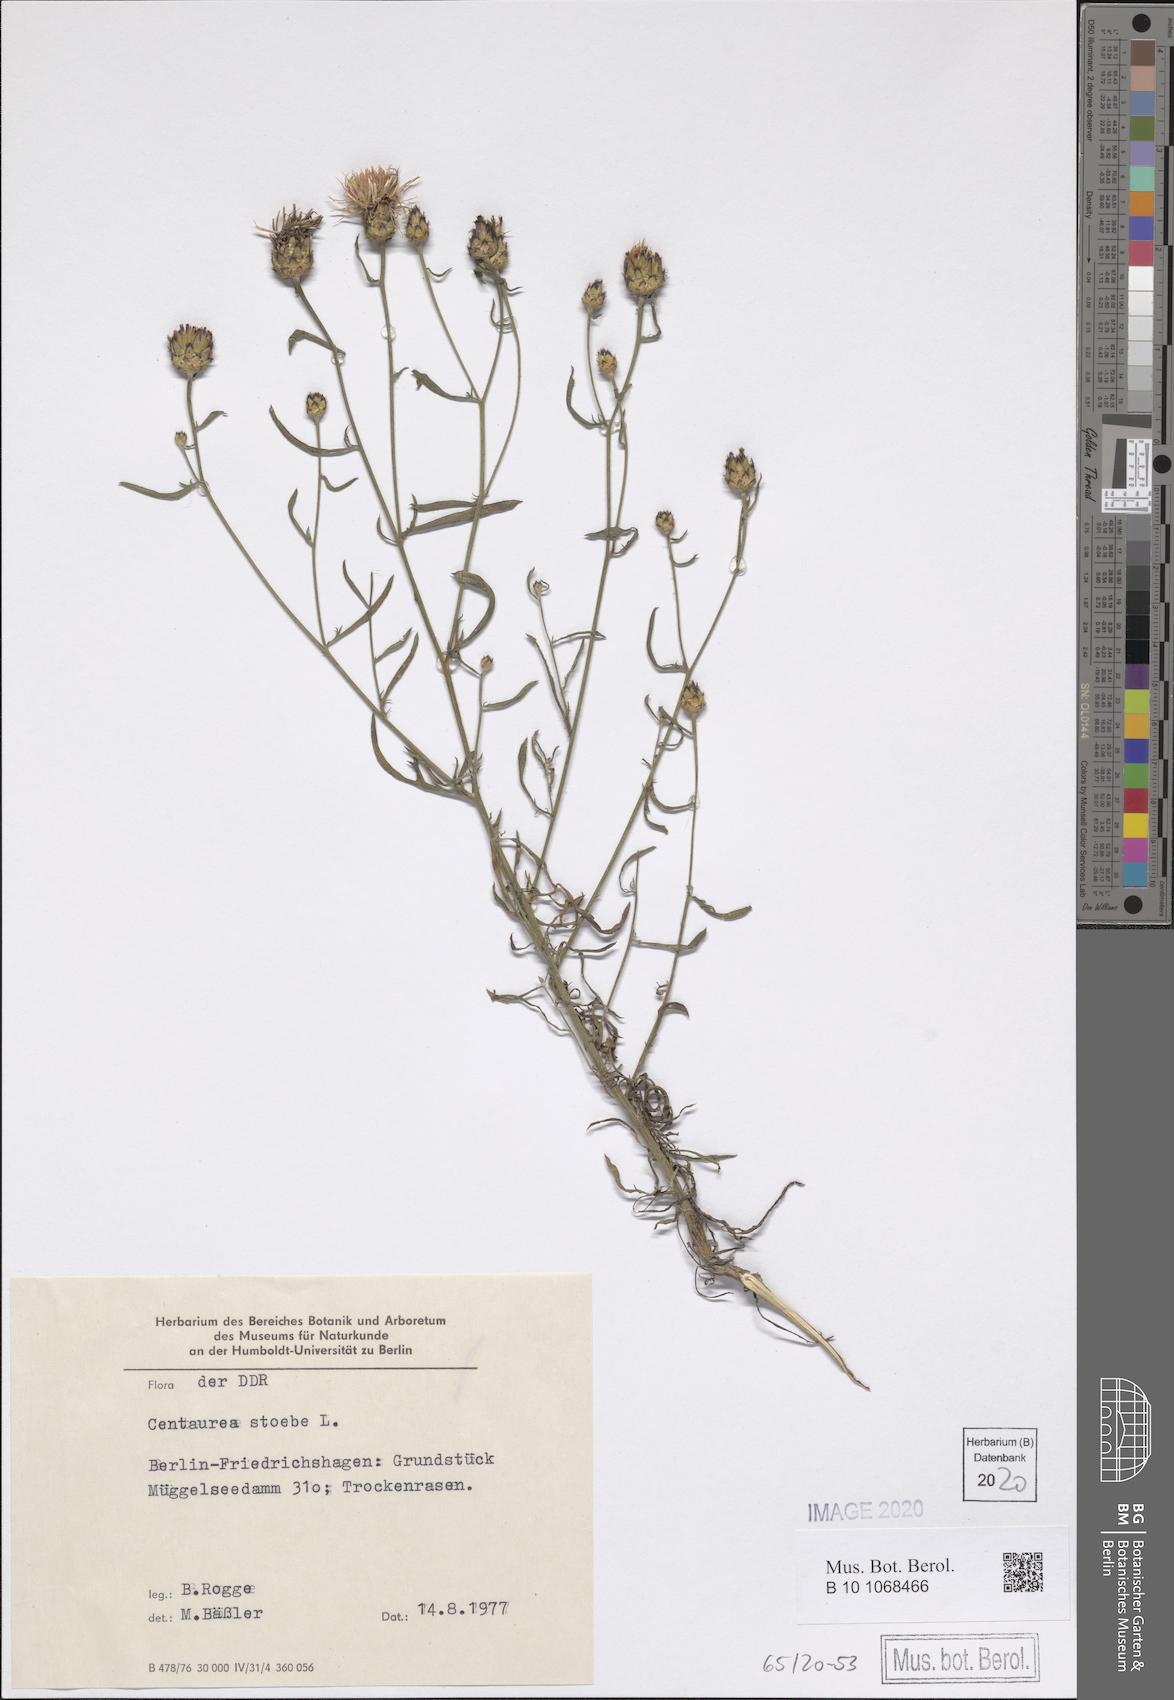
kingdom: Plantae
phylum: Tracheophyta
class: Magnoliopsida
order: Asterales
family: Asteraceae
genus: Centaurea
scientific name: Centaurea stoebe
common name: Spotted knapweed
